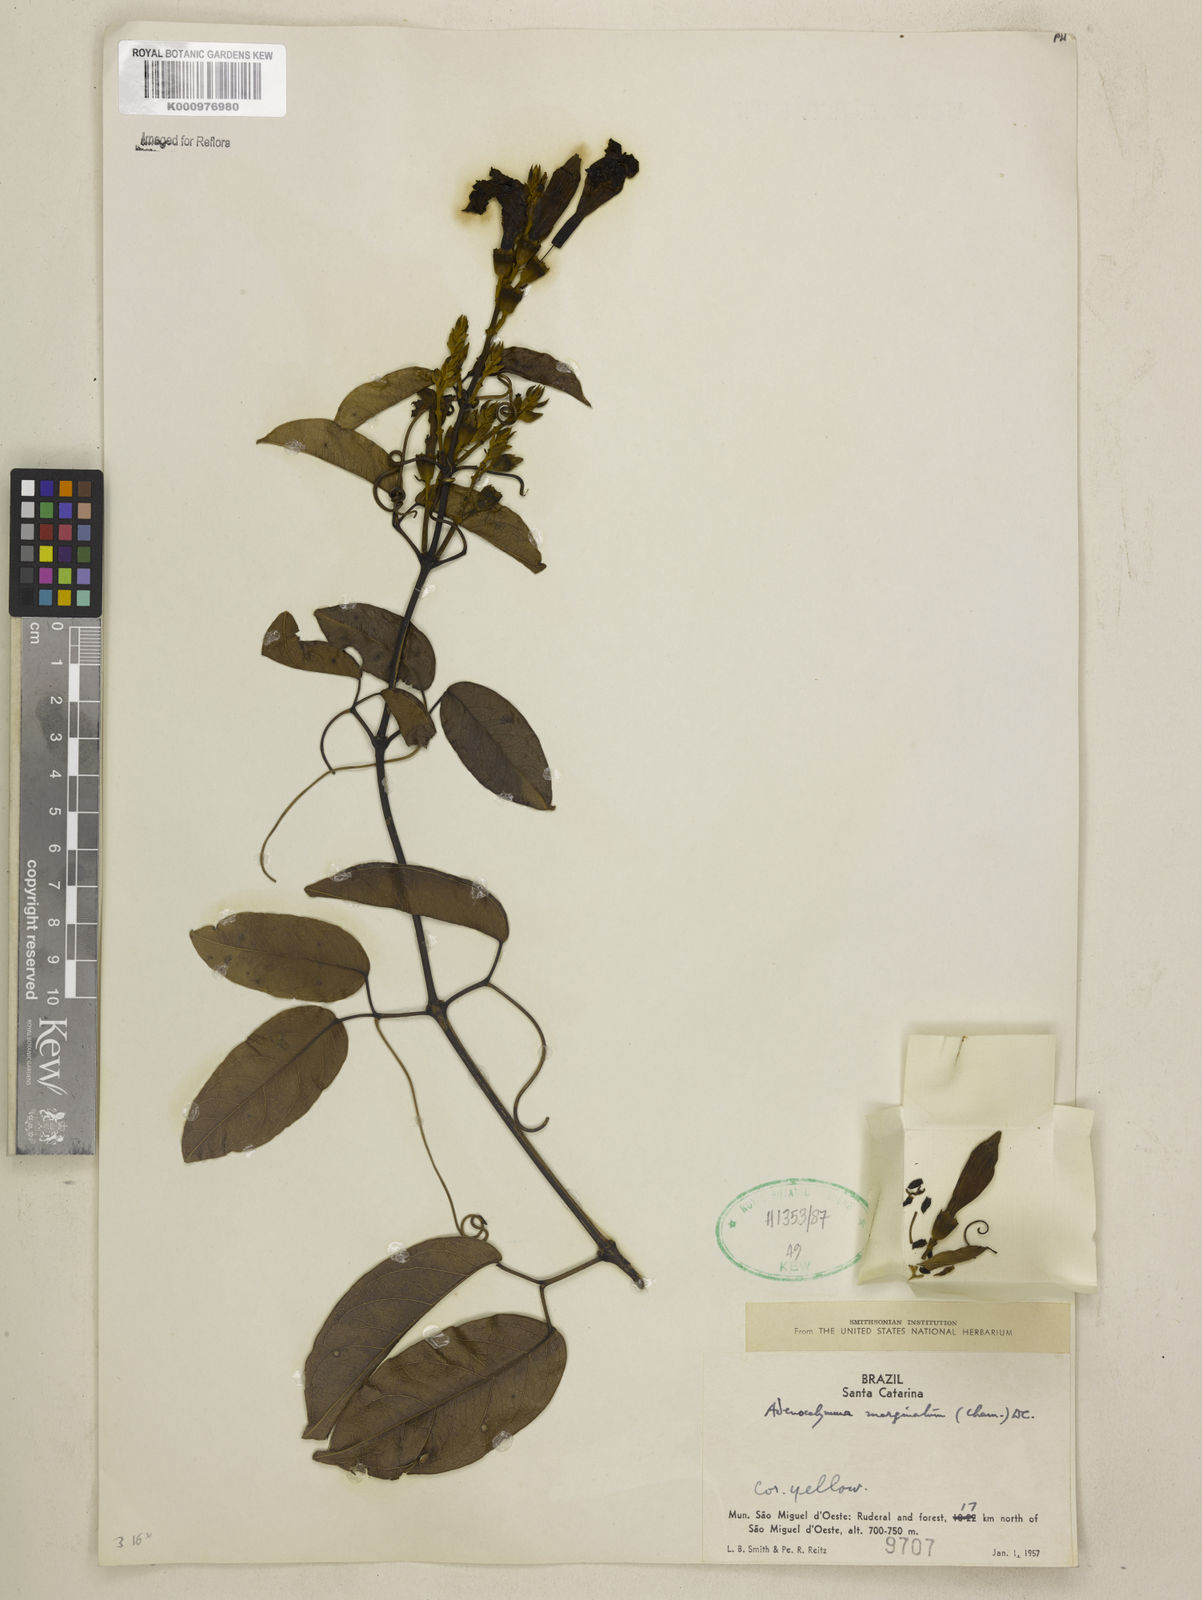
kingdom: Plantae
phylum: Tracheophyta
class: Magnoliopsida
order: Lamiales
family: Bignoniaceae
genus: Adenocalymma
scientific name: Adenocalymma marginatum
